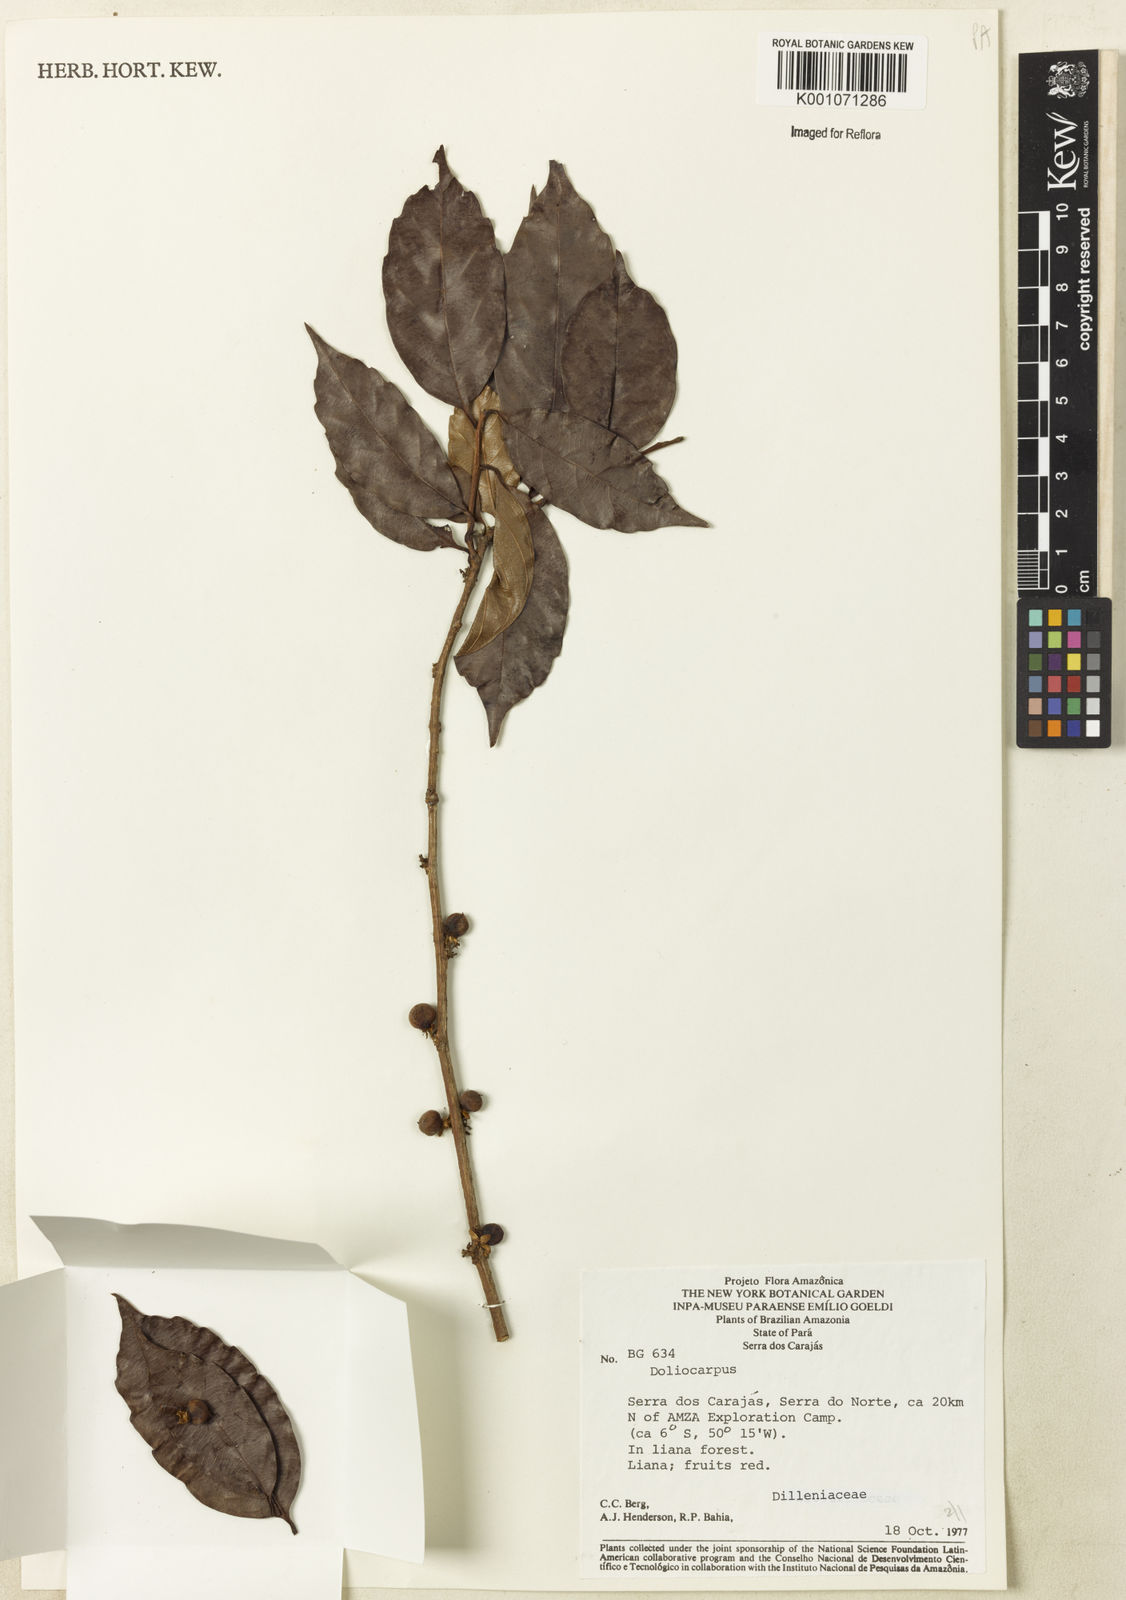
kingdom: Plantae
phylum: Tracheophyta
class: Magnoliopsida
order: Dilleniales
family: Dilleniaceae
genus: Doliocarpus
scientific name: Doliocarpus
